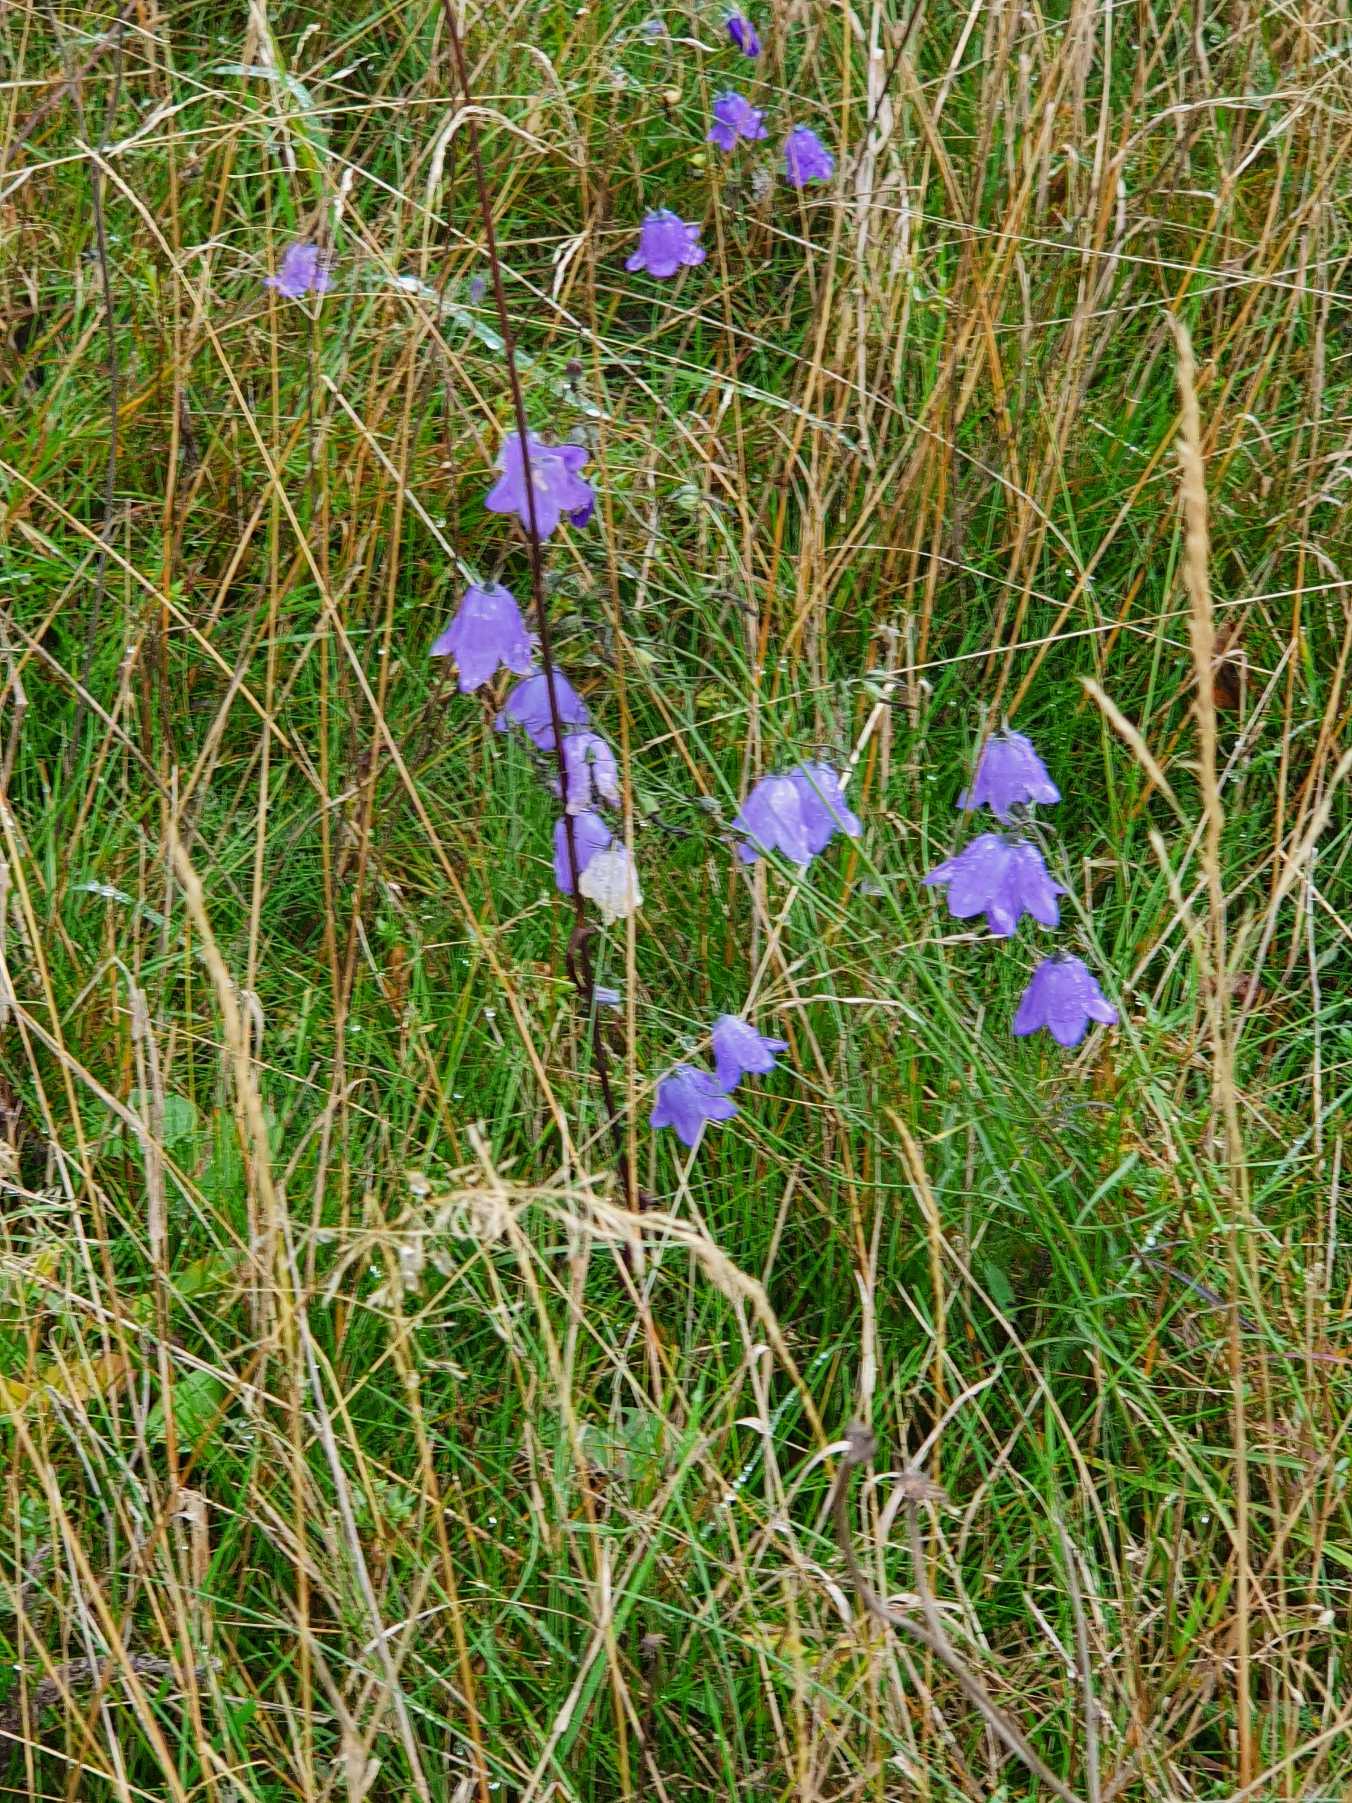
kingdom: Plantae
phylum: Tracheophyta
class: Magnoliopsida
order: Asterales
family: Campanulaceae
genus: Campanula
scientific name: Campanula rotundifolia
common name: Liden klokke
